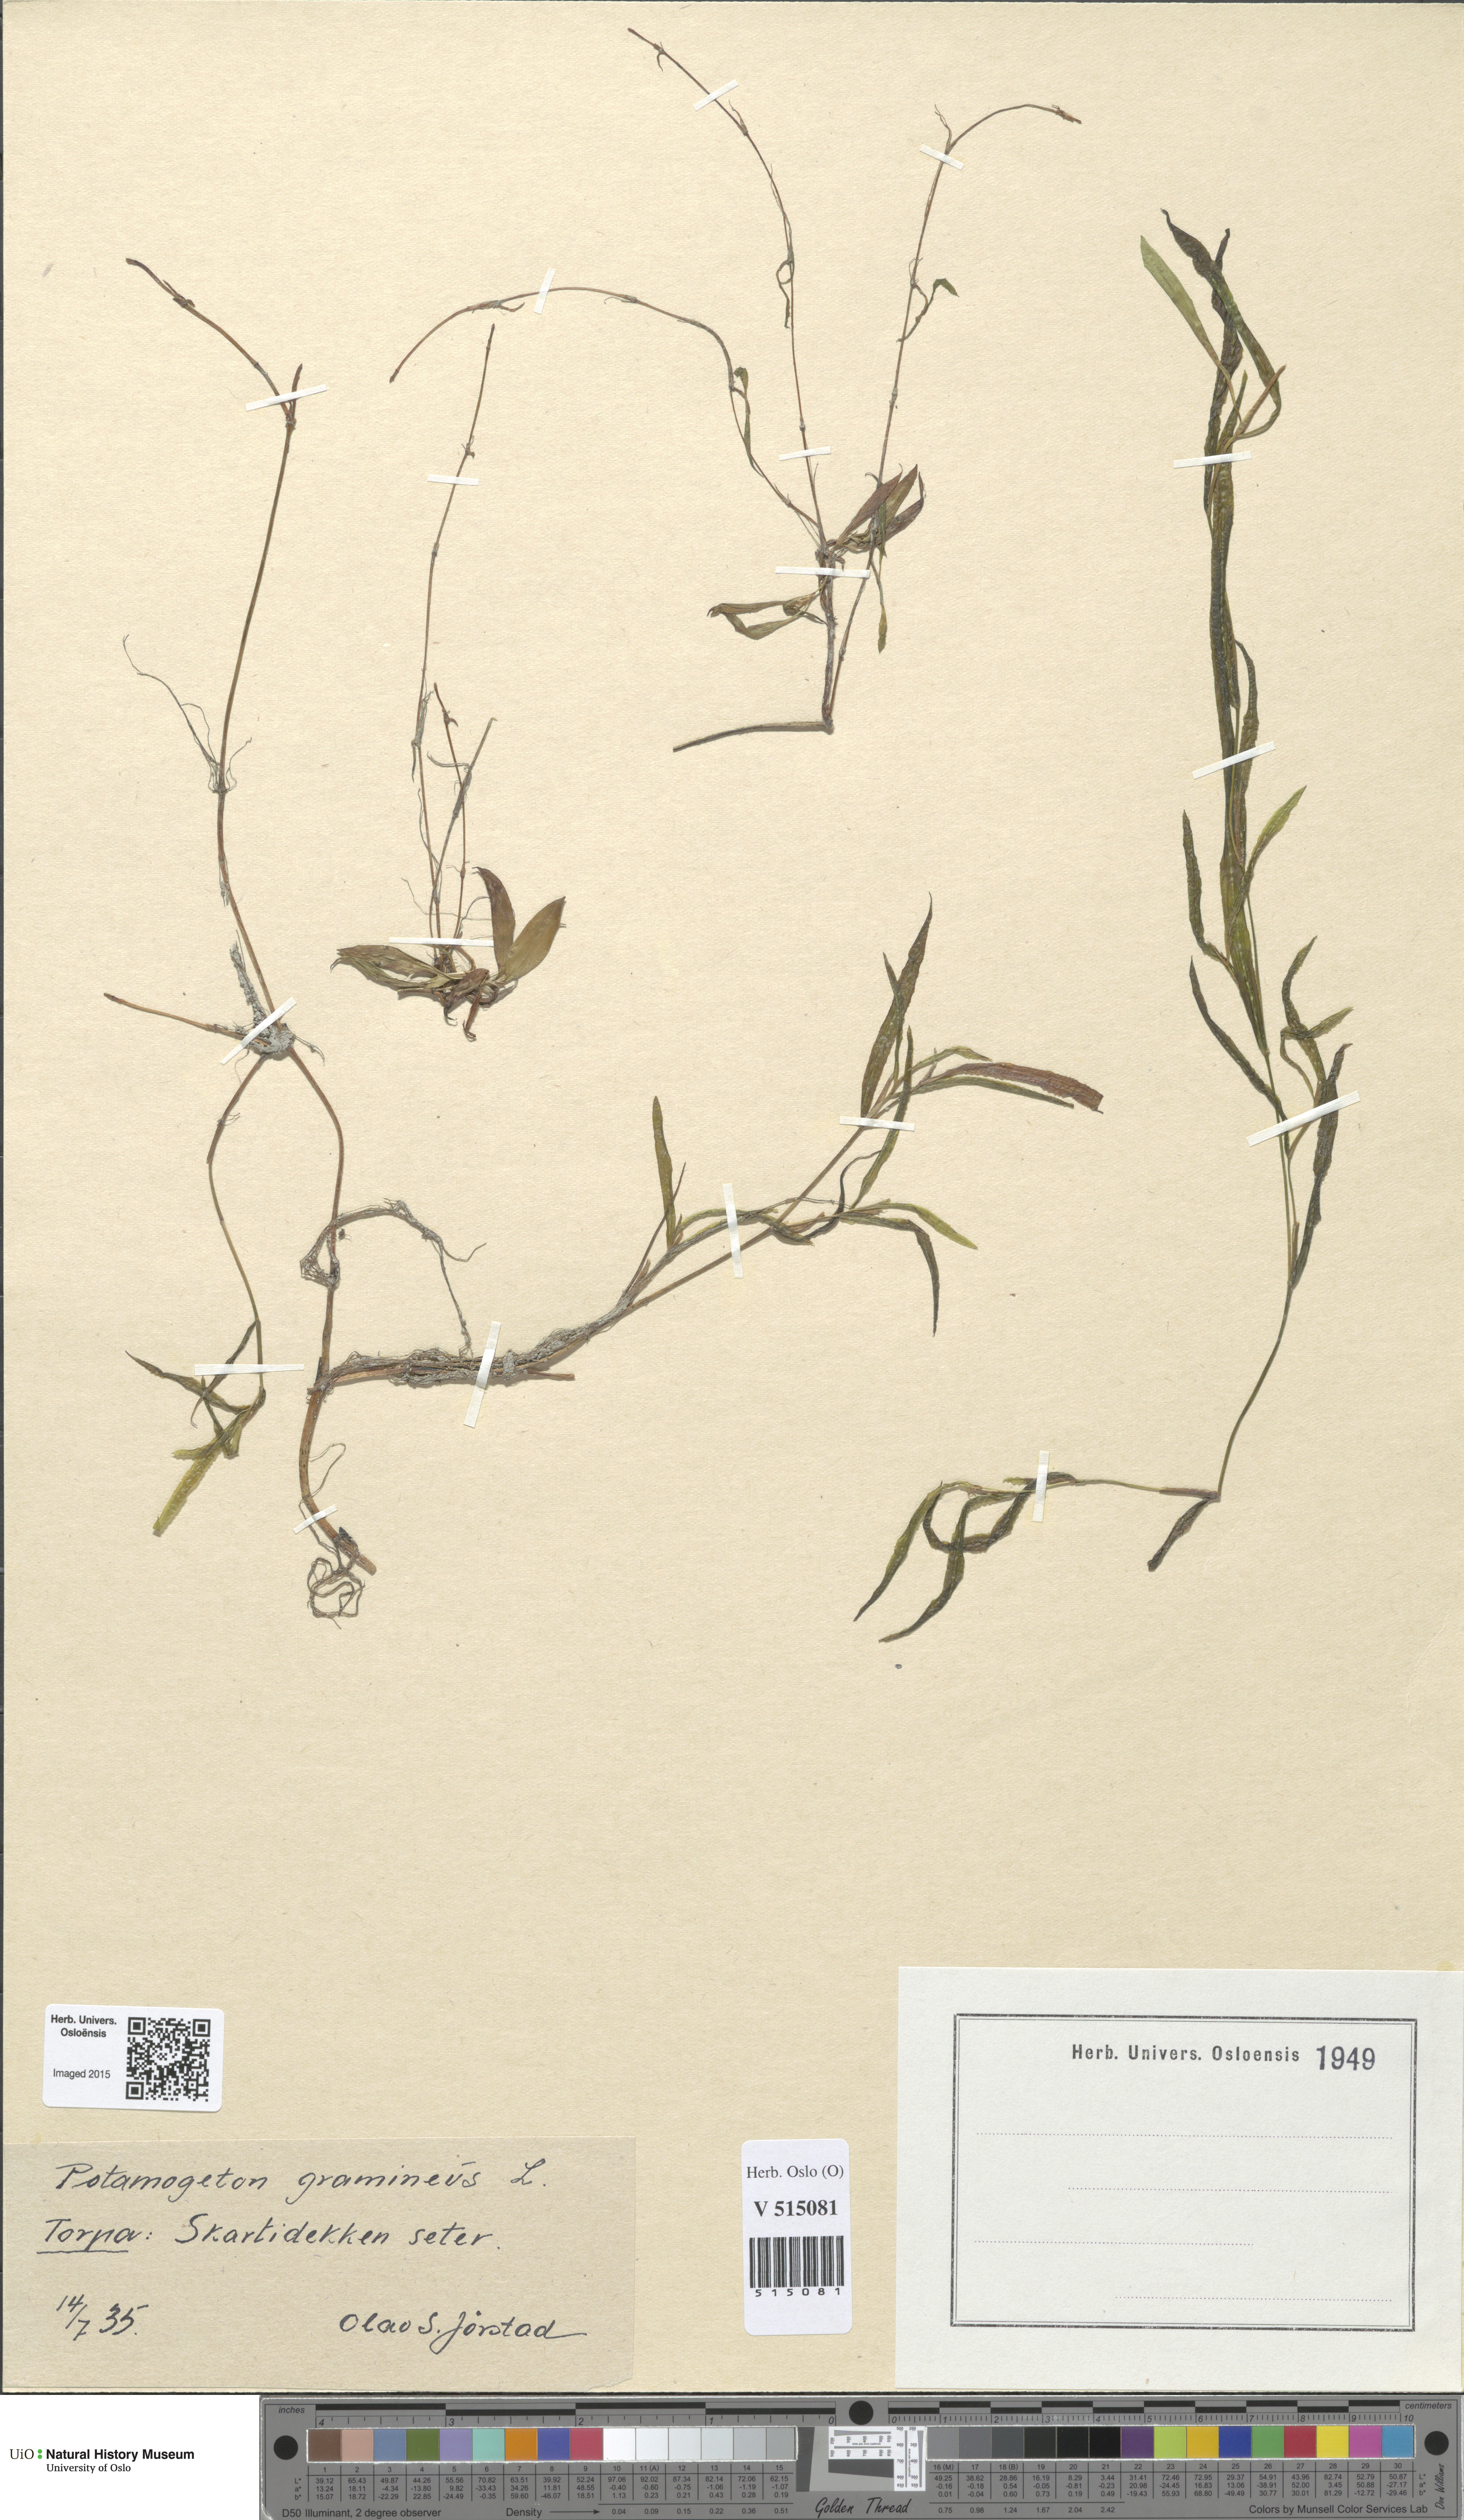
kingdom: Plantae
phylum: Tracheophyta
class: Liliopsida
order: Alismatales
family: Potamogetonaceae
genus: Potamogeton
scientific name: Potamogeton gramineus
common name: Various-leaved pondweed
